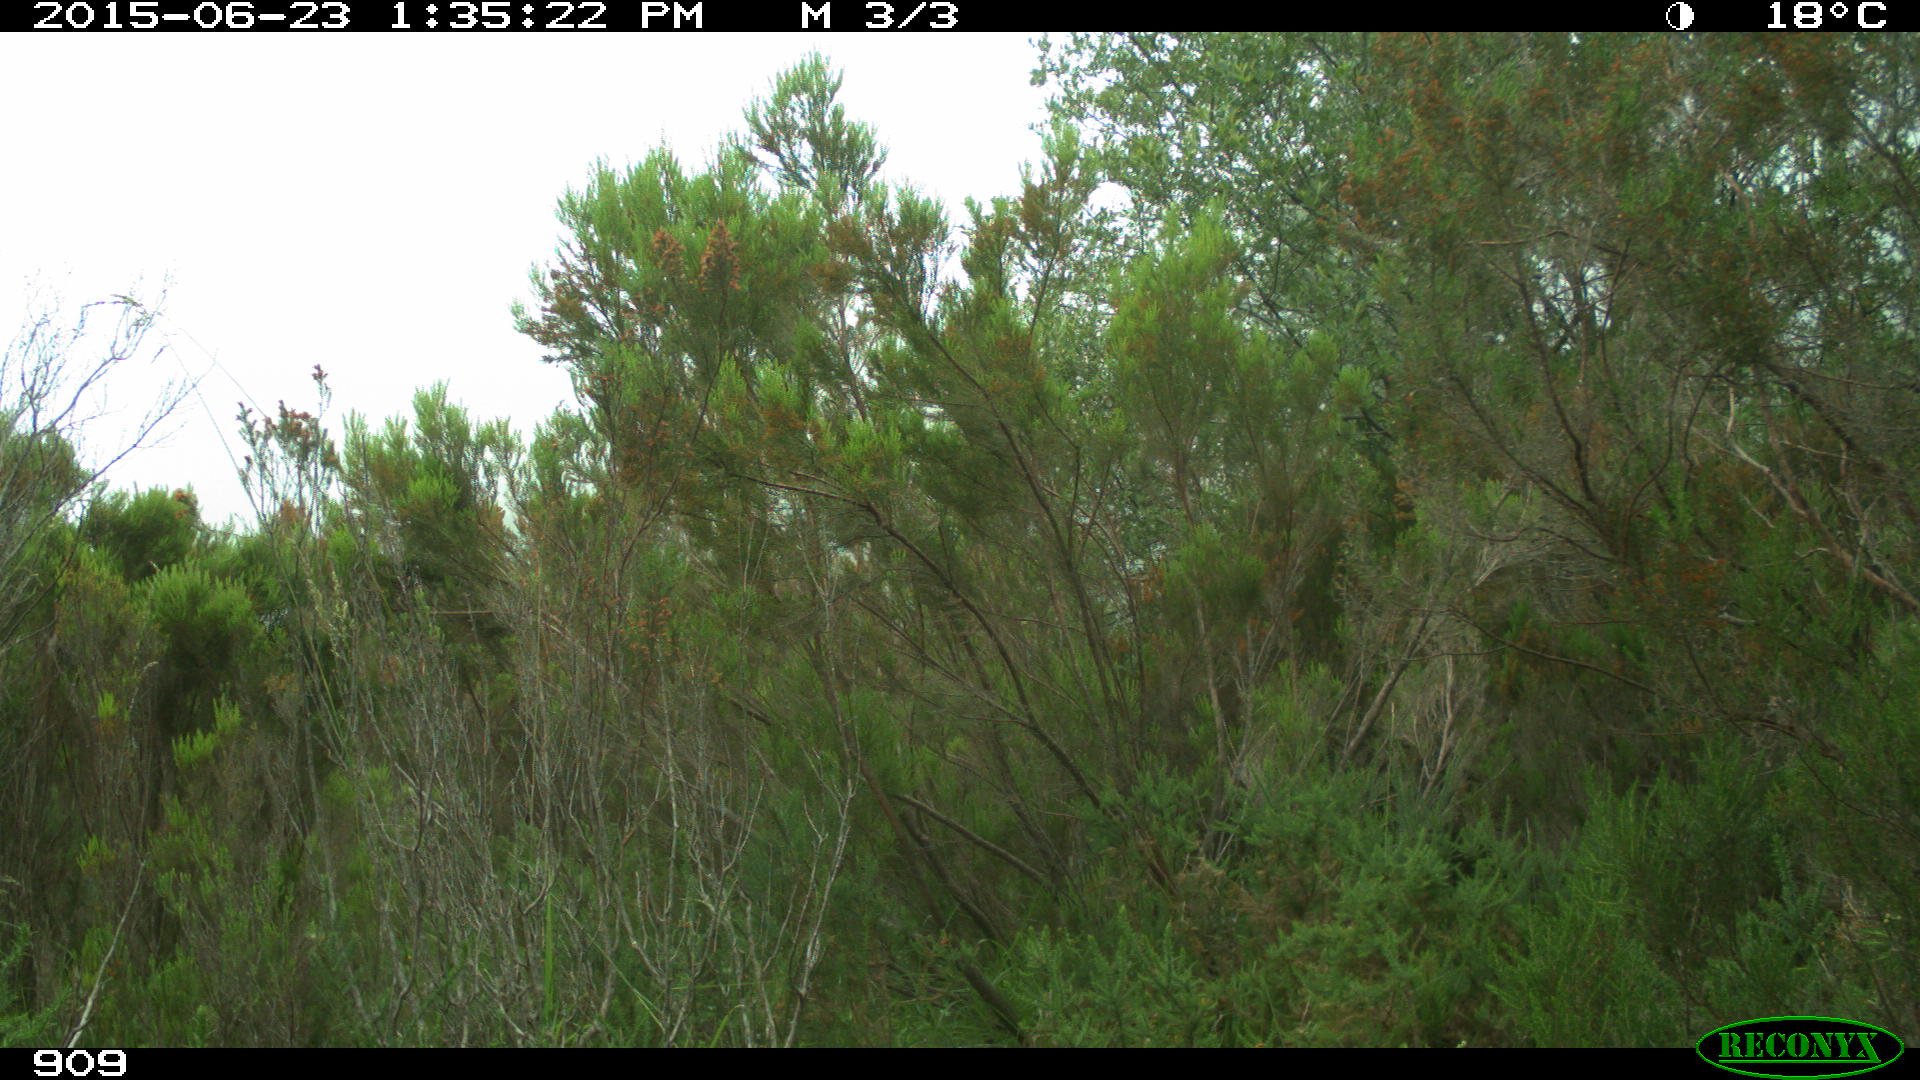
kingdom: Animalia
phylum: Chordata
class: Mammalia
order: Artiodactyla
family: Bovidae
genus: Bos
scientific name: Bos taurus
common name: Domesticated cattle
